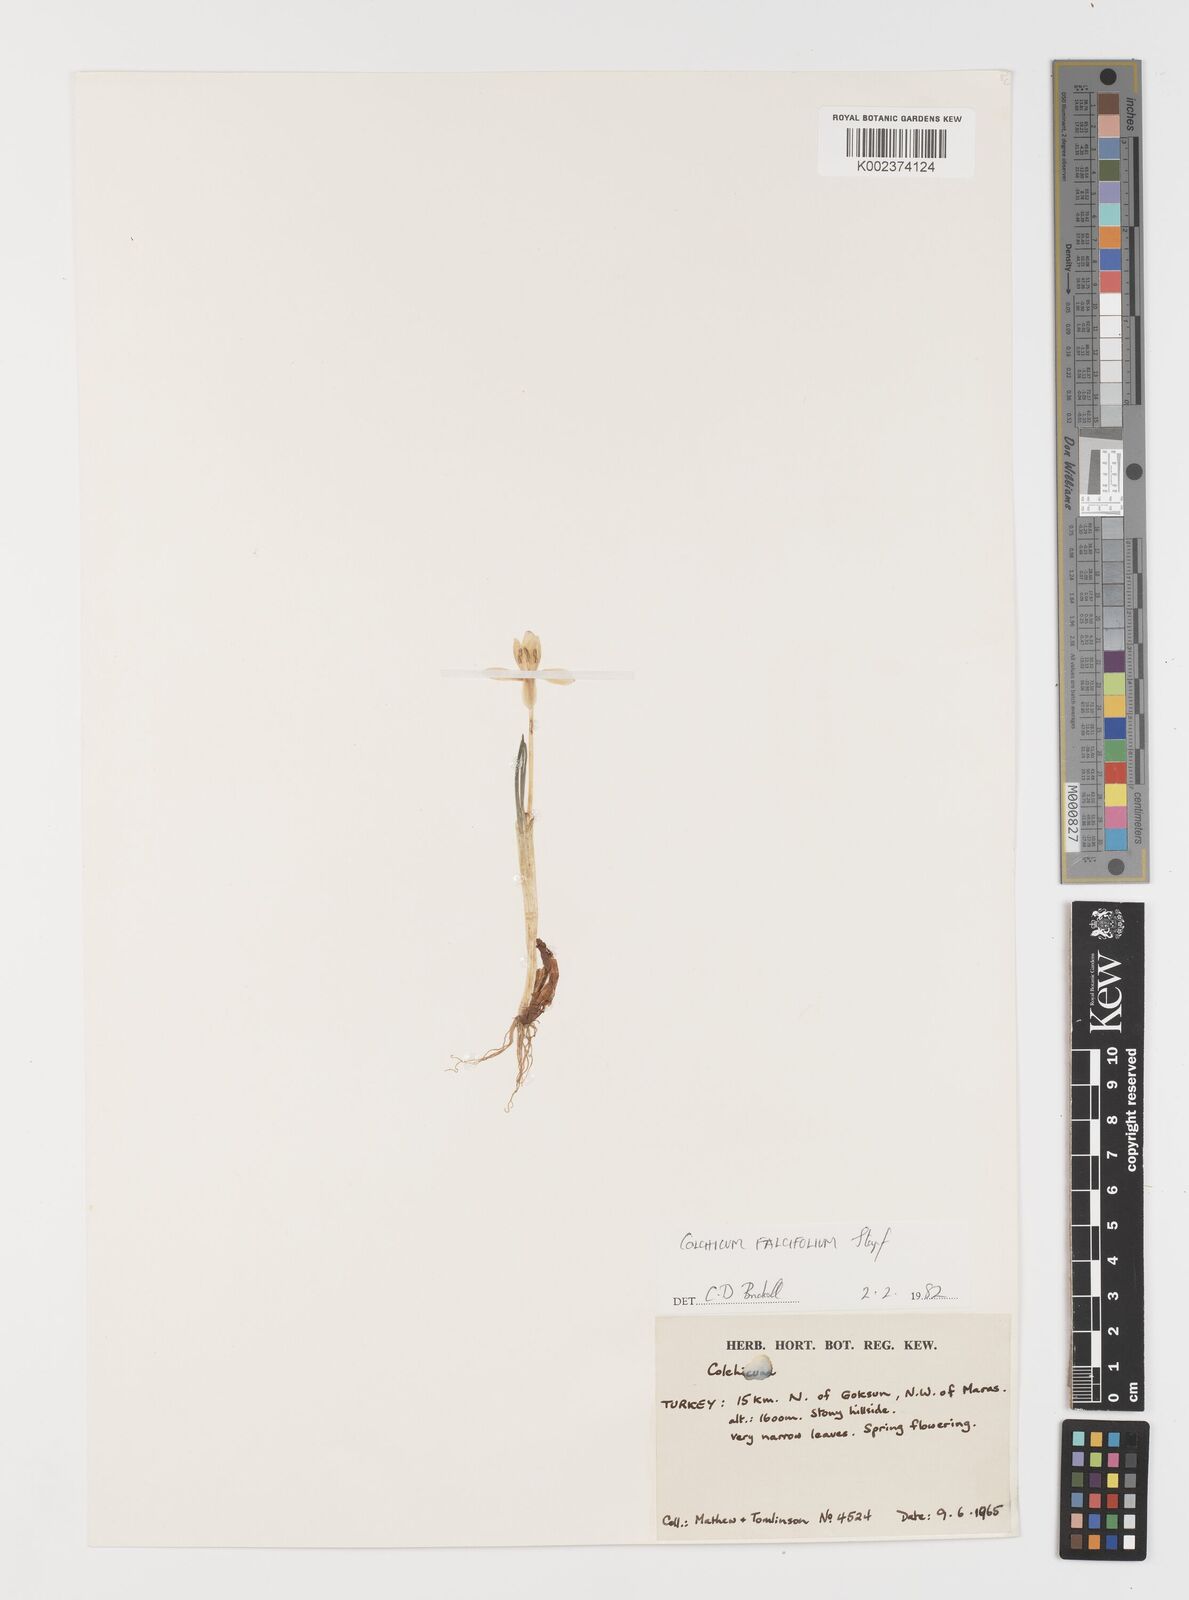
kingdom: Plantae
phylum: Tracheophyta
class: Liliopsida
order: Asparagales
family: Iridaceae
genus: Iris
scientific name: Iris caucasica
